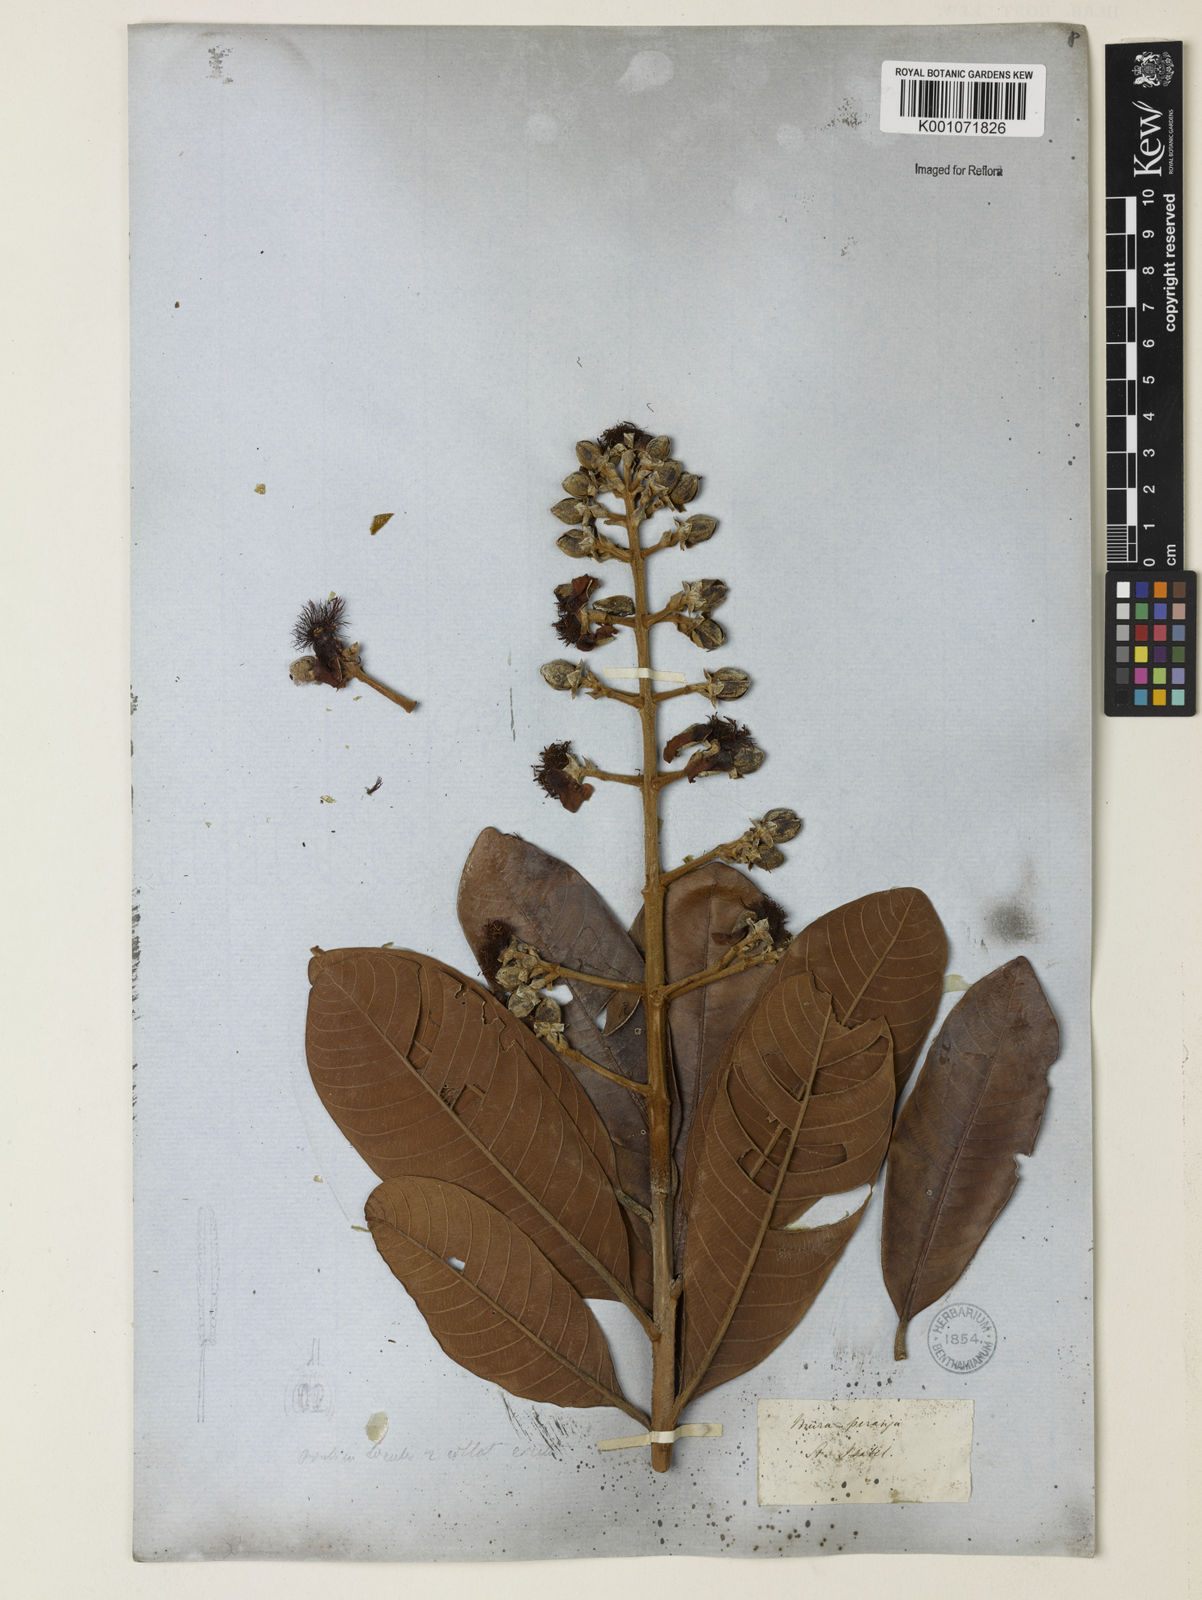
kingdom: Plantae
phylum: Tracheophyta
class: Magnoliopsida
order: Malpighiales
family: Calophyllaceae
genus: Haploclathra
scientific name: Haploclathra paniculata
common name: Red-wood
